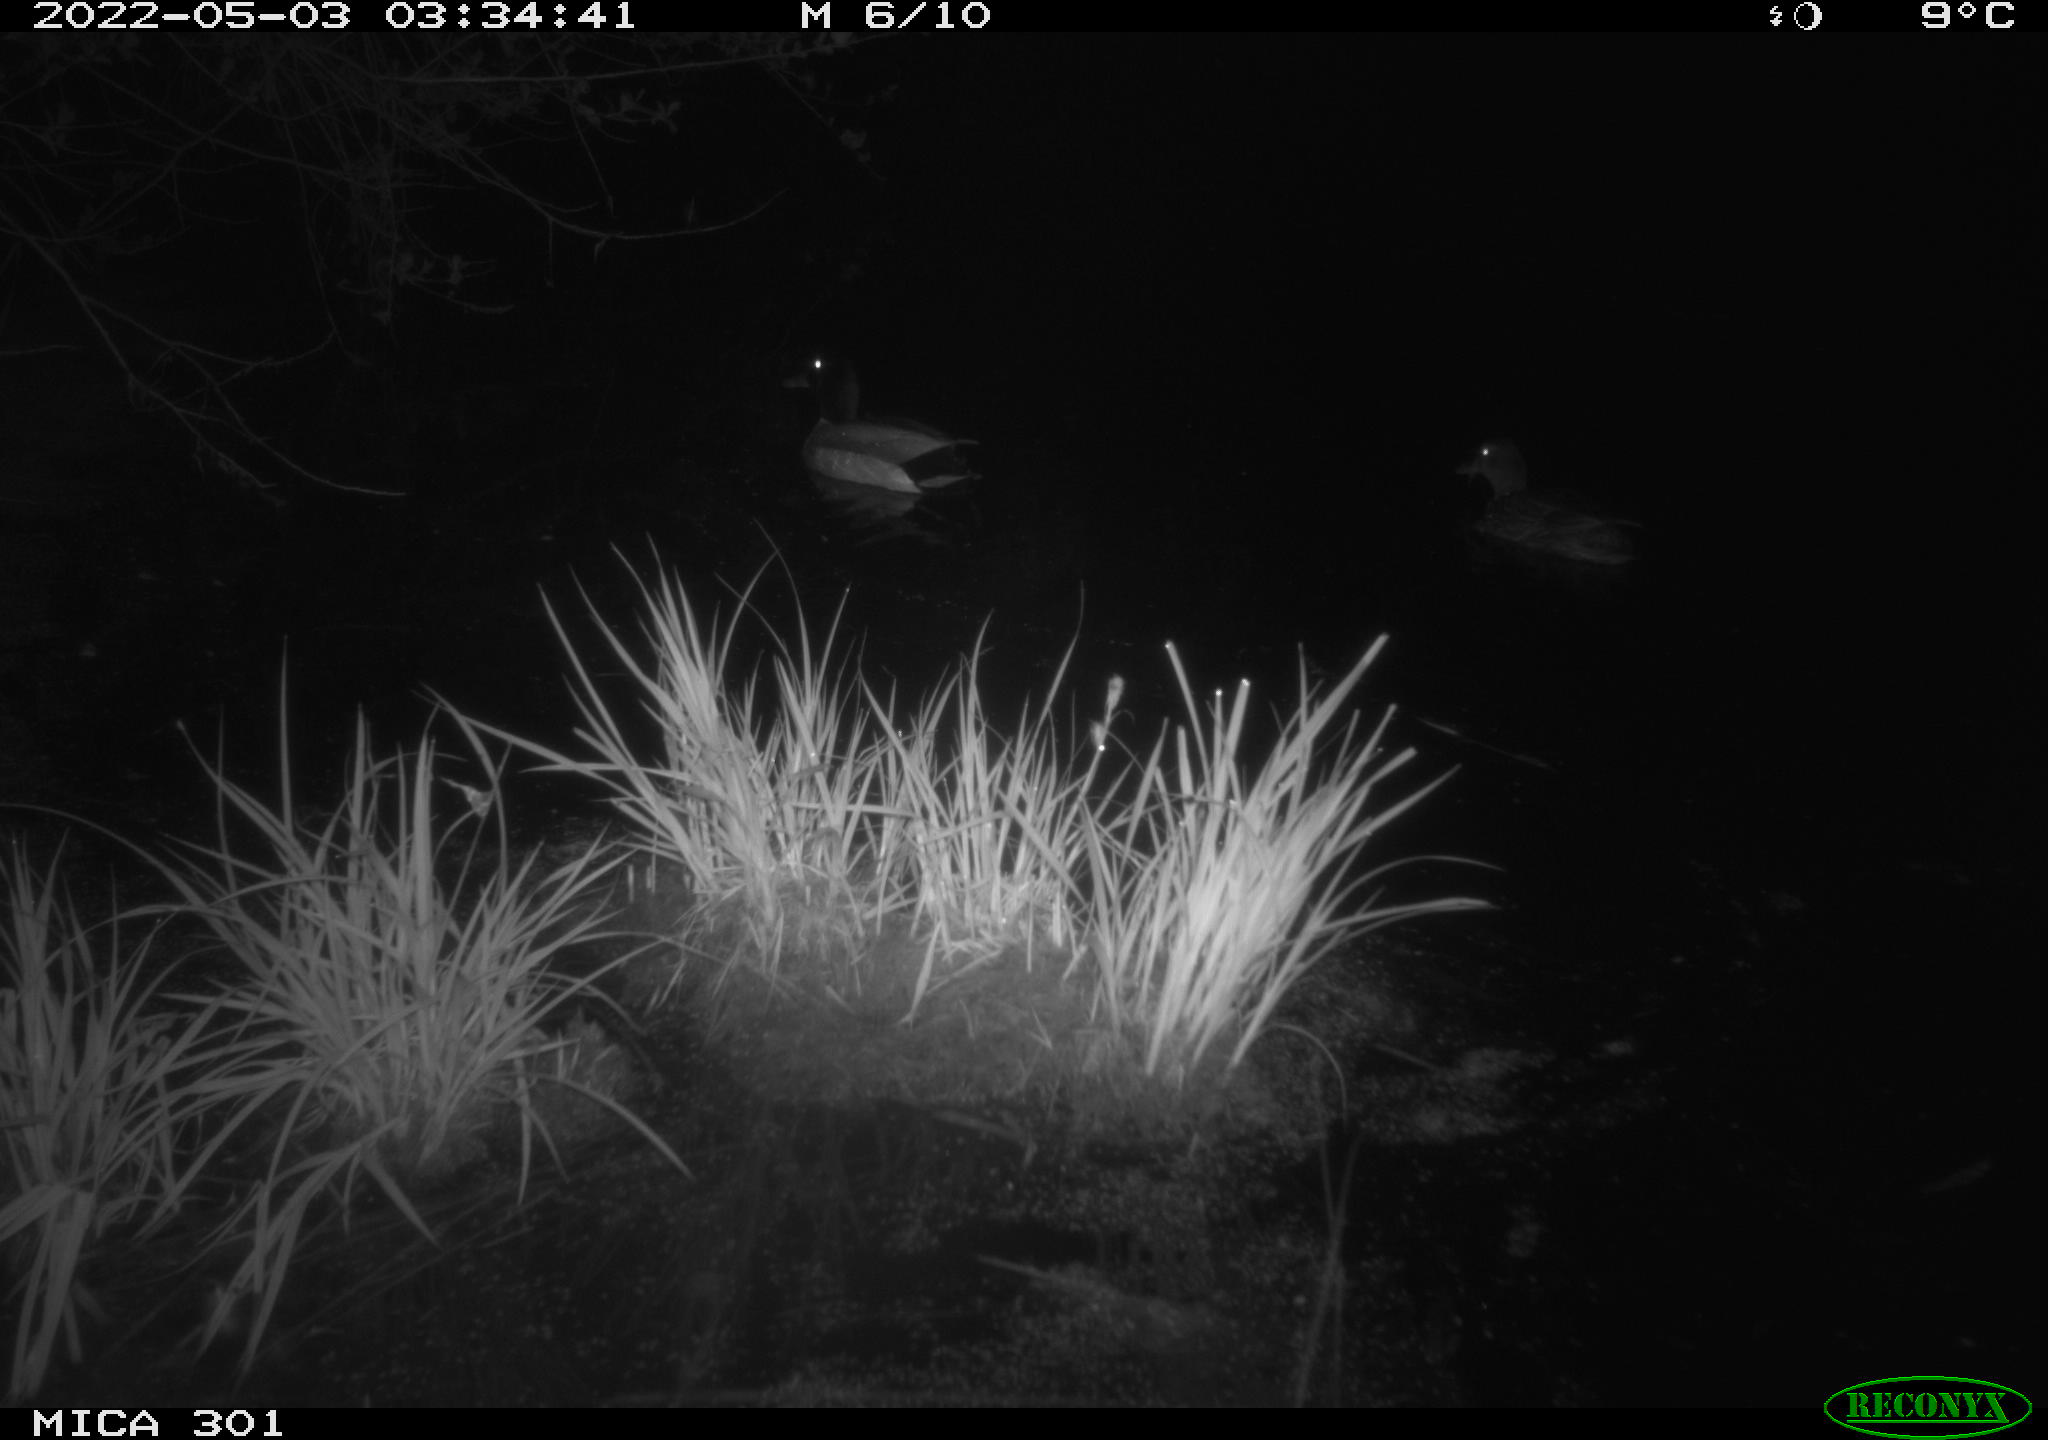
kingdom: Animalia
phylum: Chordata
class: Aves
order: Anseriformes
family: Anatidae
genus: Anas
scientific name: Anas platyrhynchos
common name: Mallard
